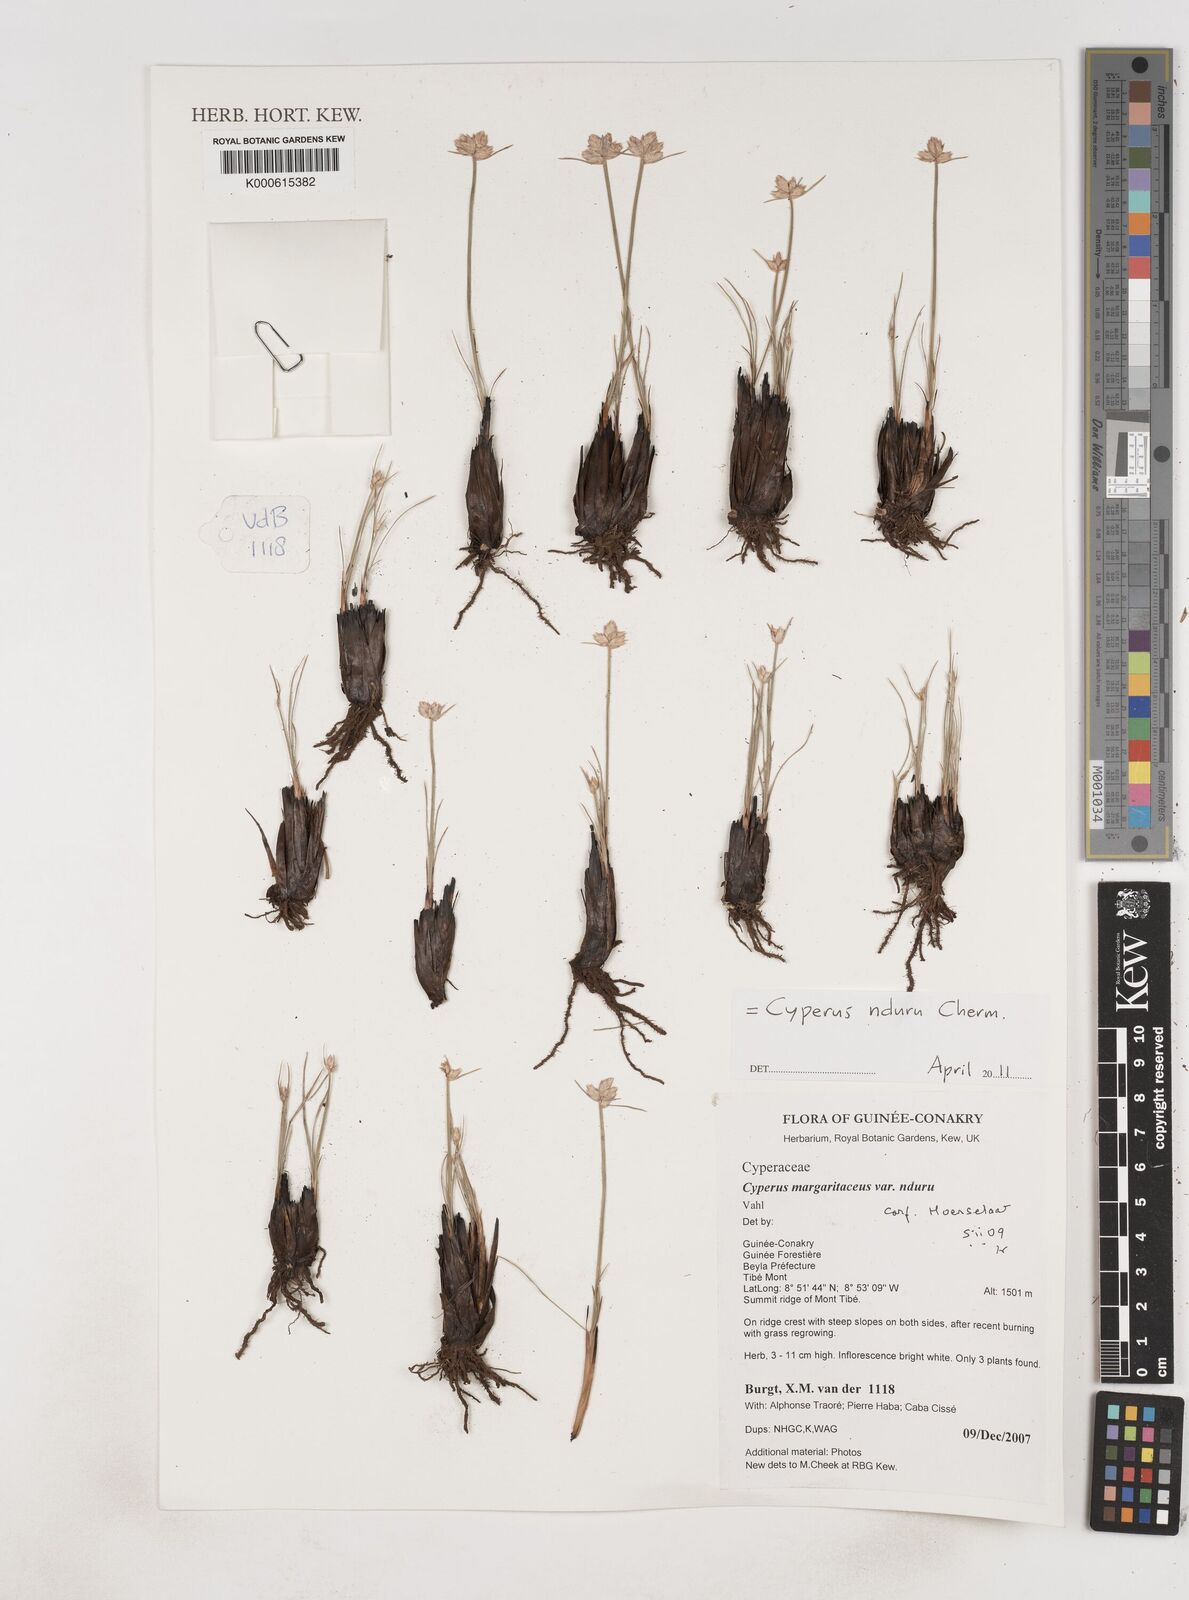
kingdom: Plantae
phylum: Tracheophyta
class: Liliopsida
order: Poales
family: Cyperaceae
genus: Cyperus
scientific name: Cyperus nduru
